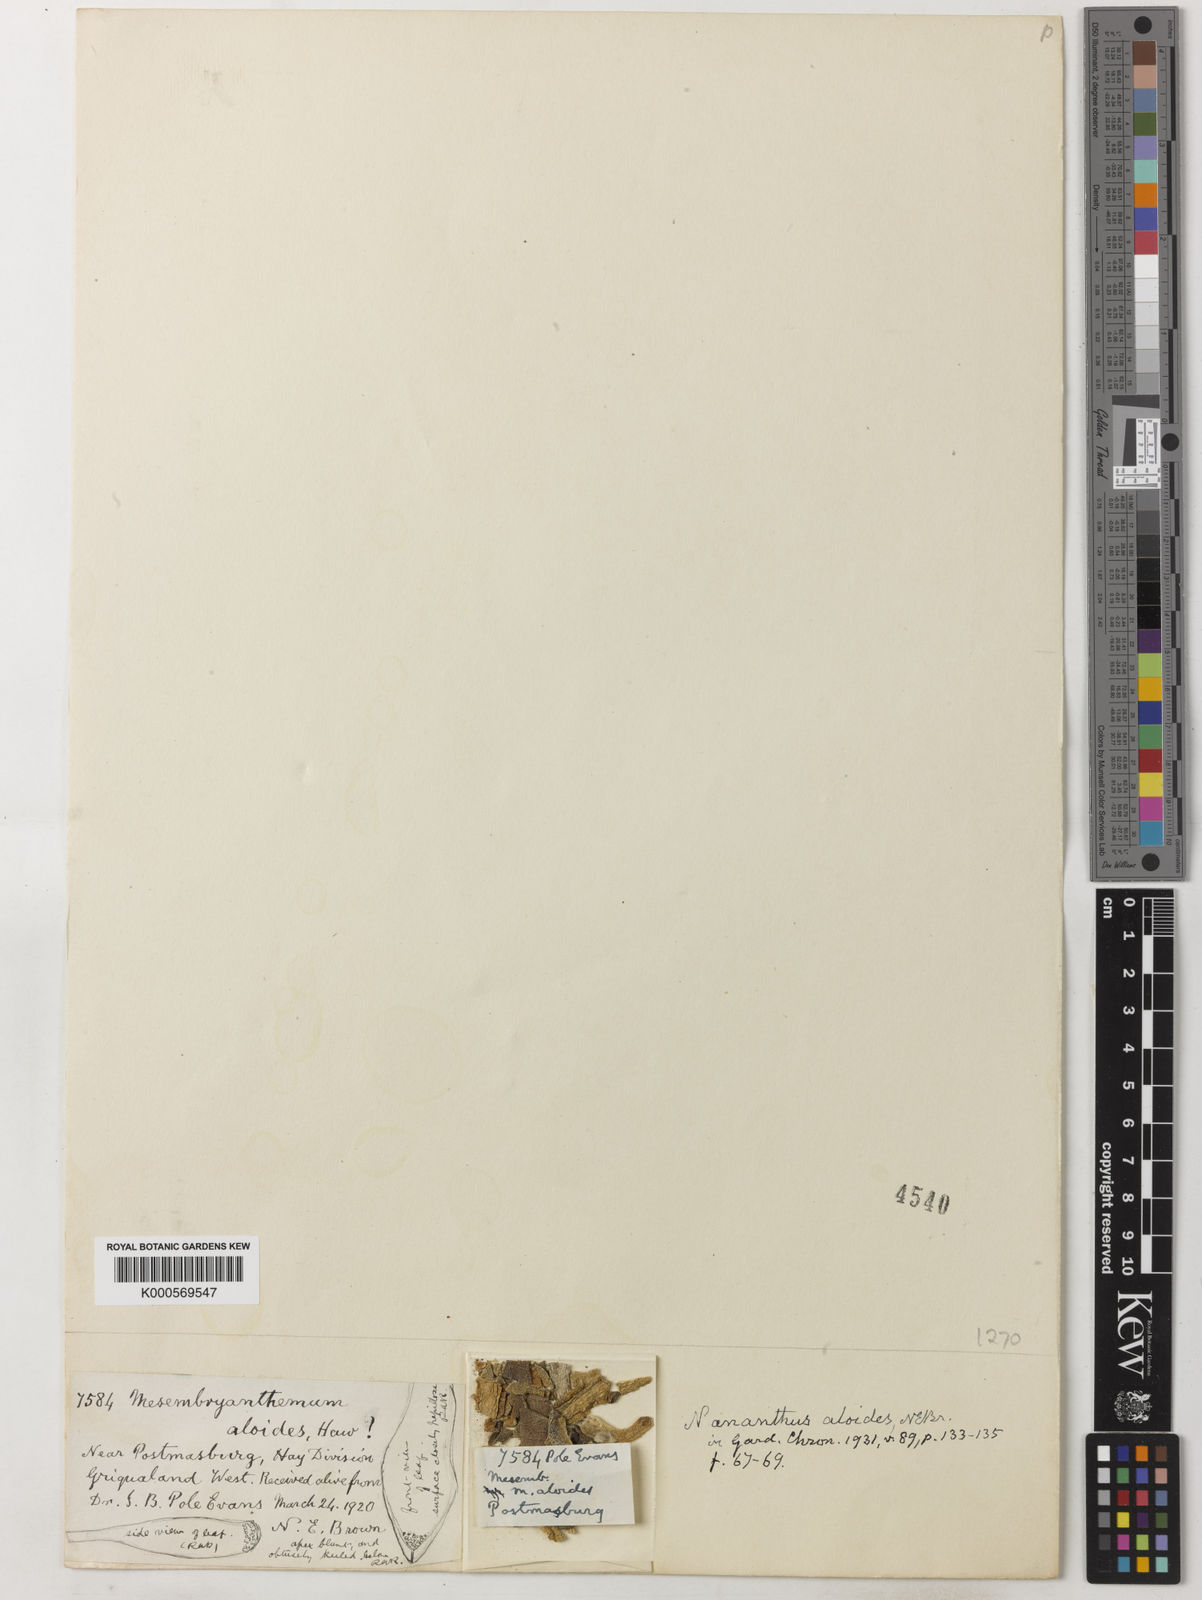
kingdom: Plantae
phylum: Tracheophyta
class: Magnoliopsida
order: Caryophyllales
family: Aizoaceae
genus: Nananthus
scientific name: Nananthus aloides
